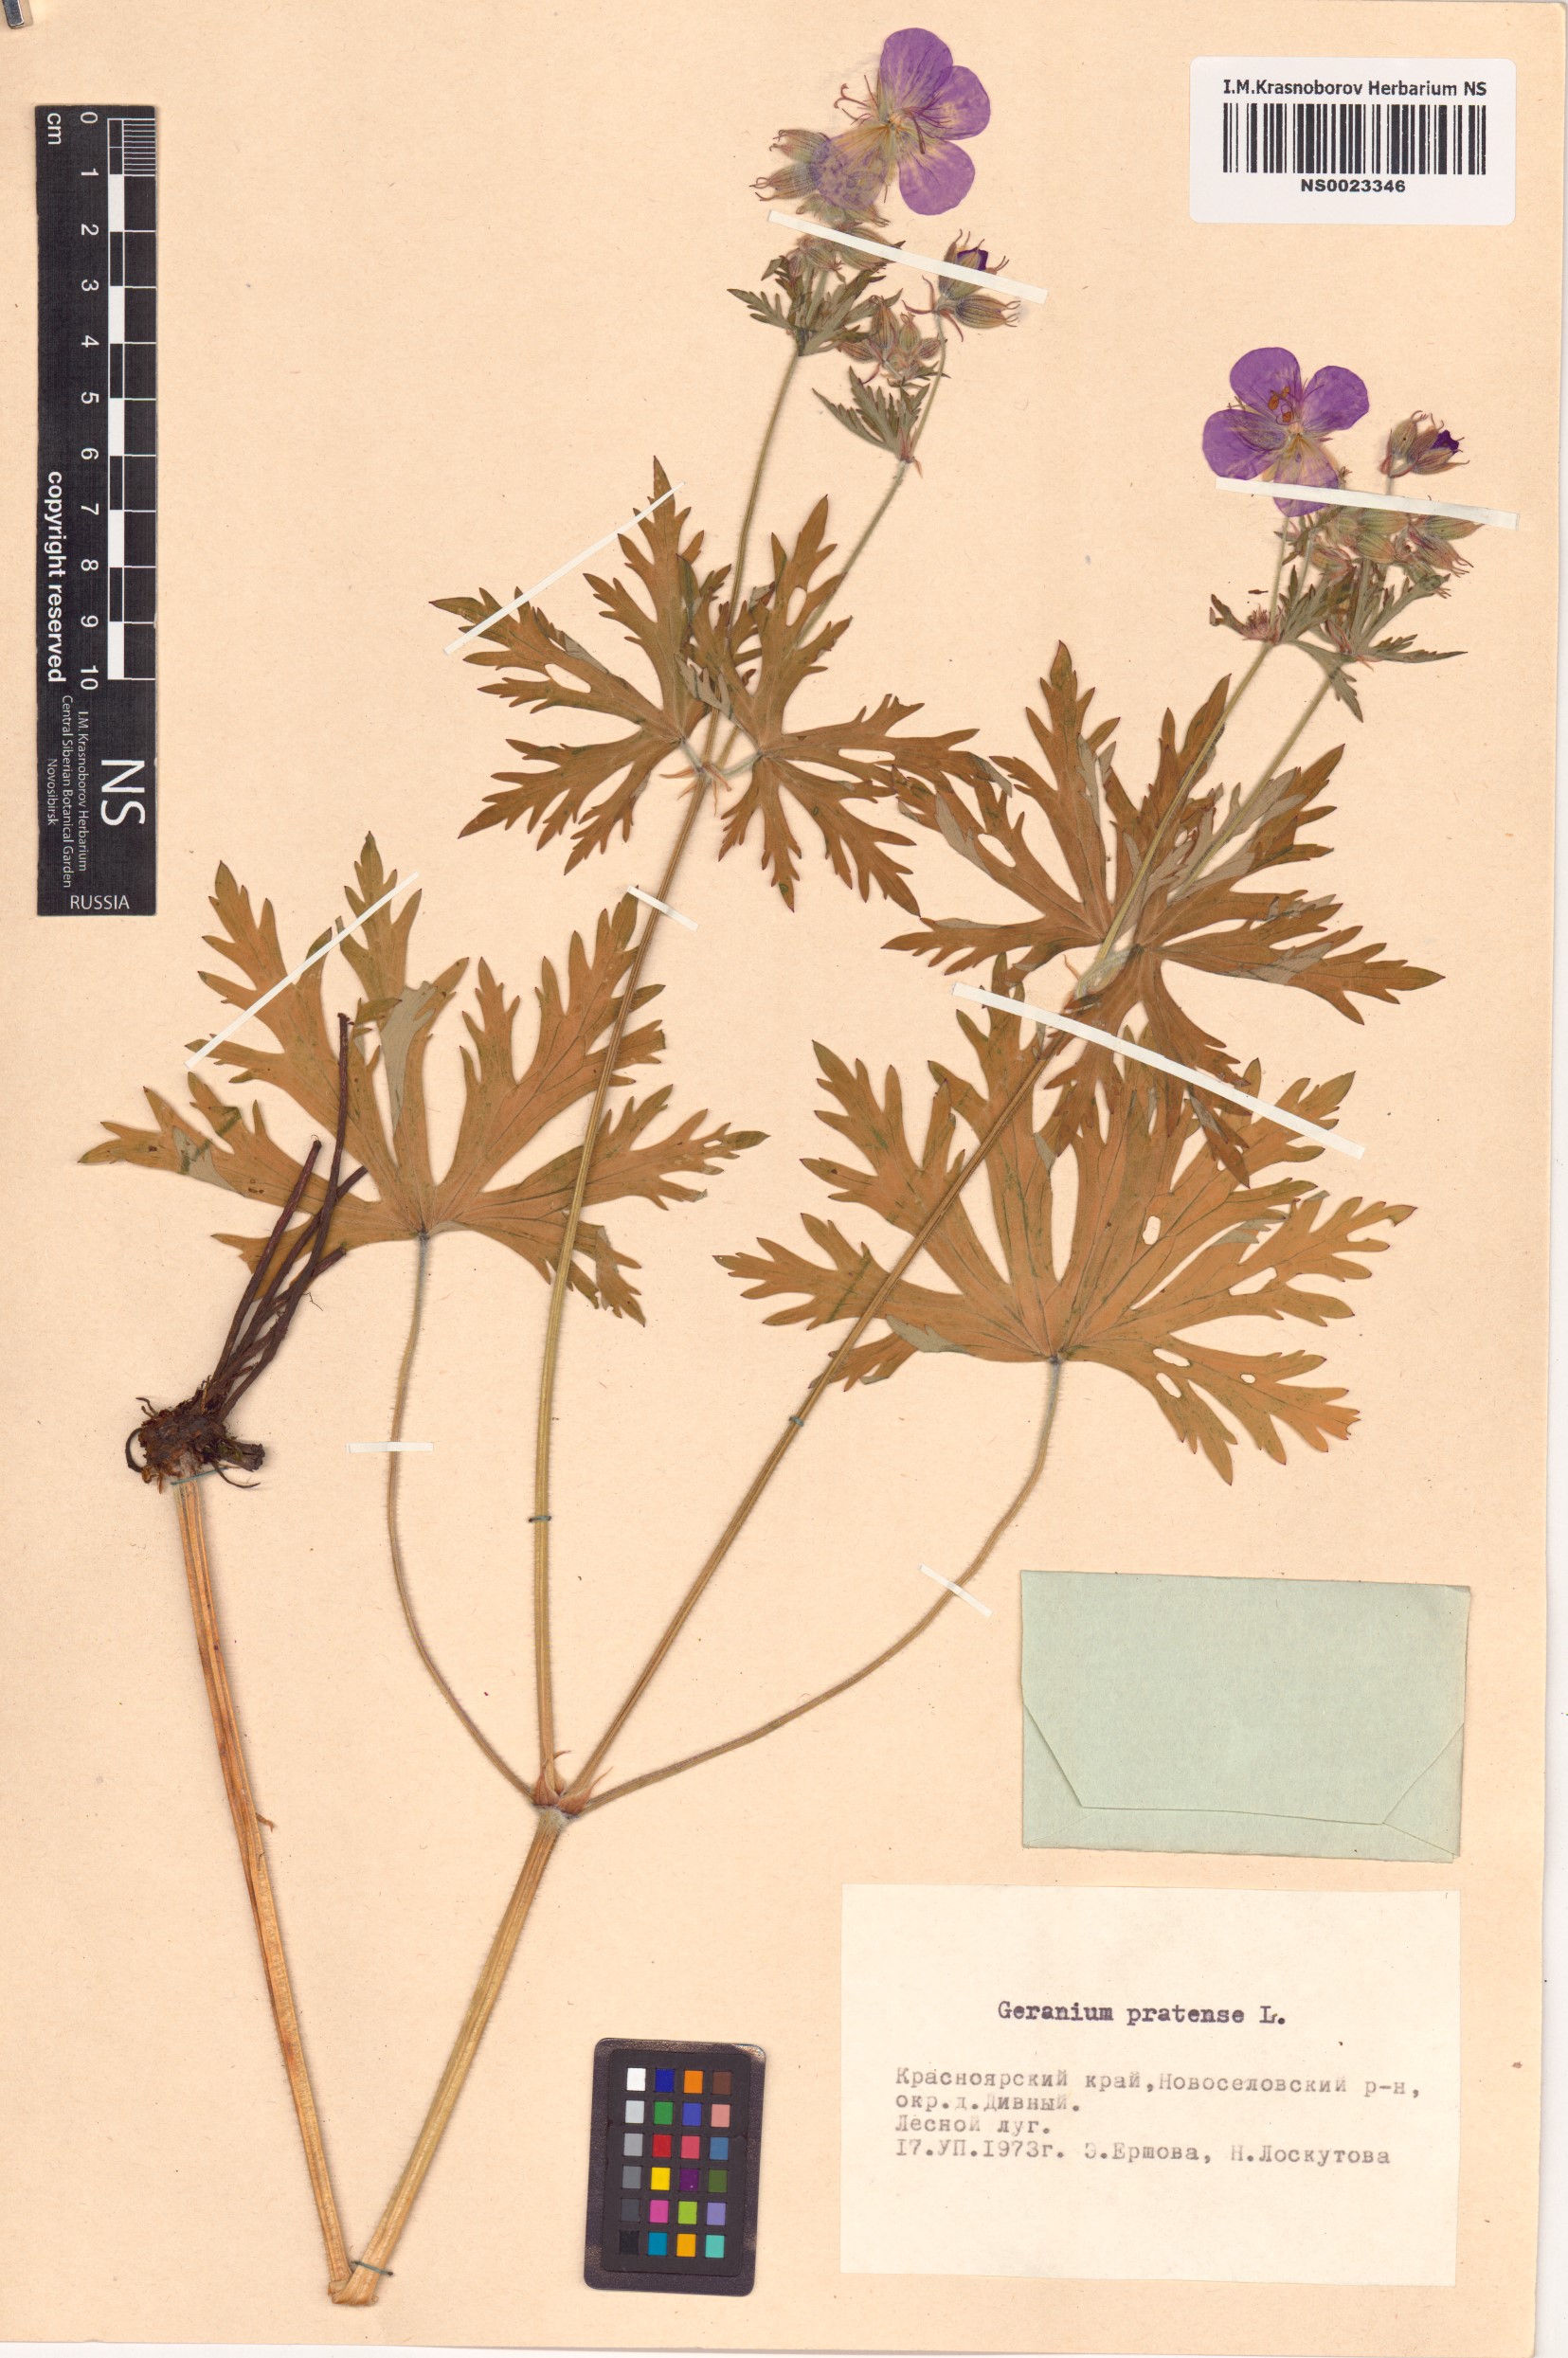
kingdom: Plantae
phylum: Tracheophyta
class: Magnoliopsida
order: Geraniales
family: Geraniaceae
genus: Geranium
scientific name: Geranium pratense
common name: Meadow crane's-bill
